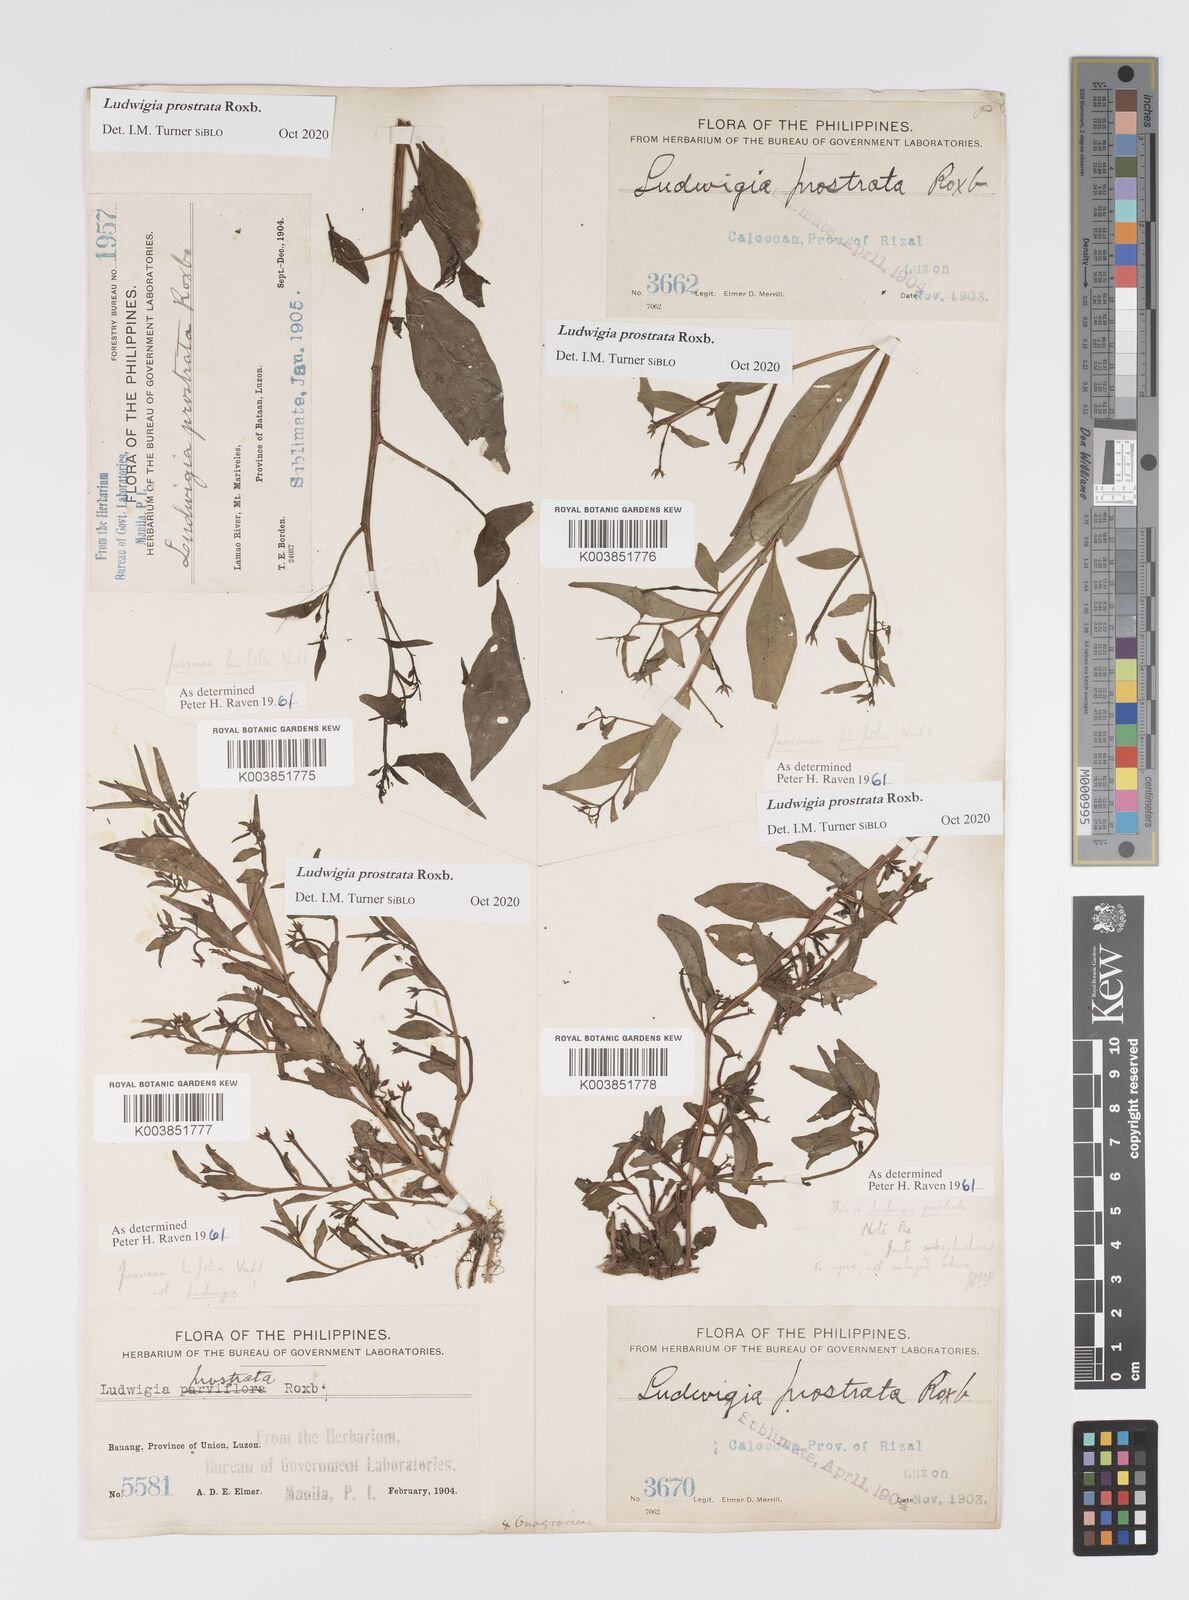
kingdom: Plantae
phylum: Tracheophyta
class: Magnoliopsida
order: Myrtales
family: Onagraceae
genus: Ludwigia
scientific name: Ludwigia prostrata
